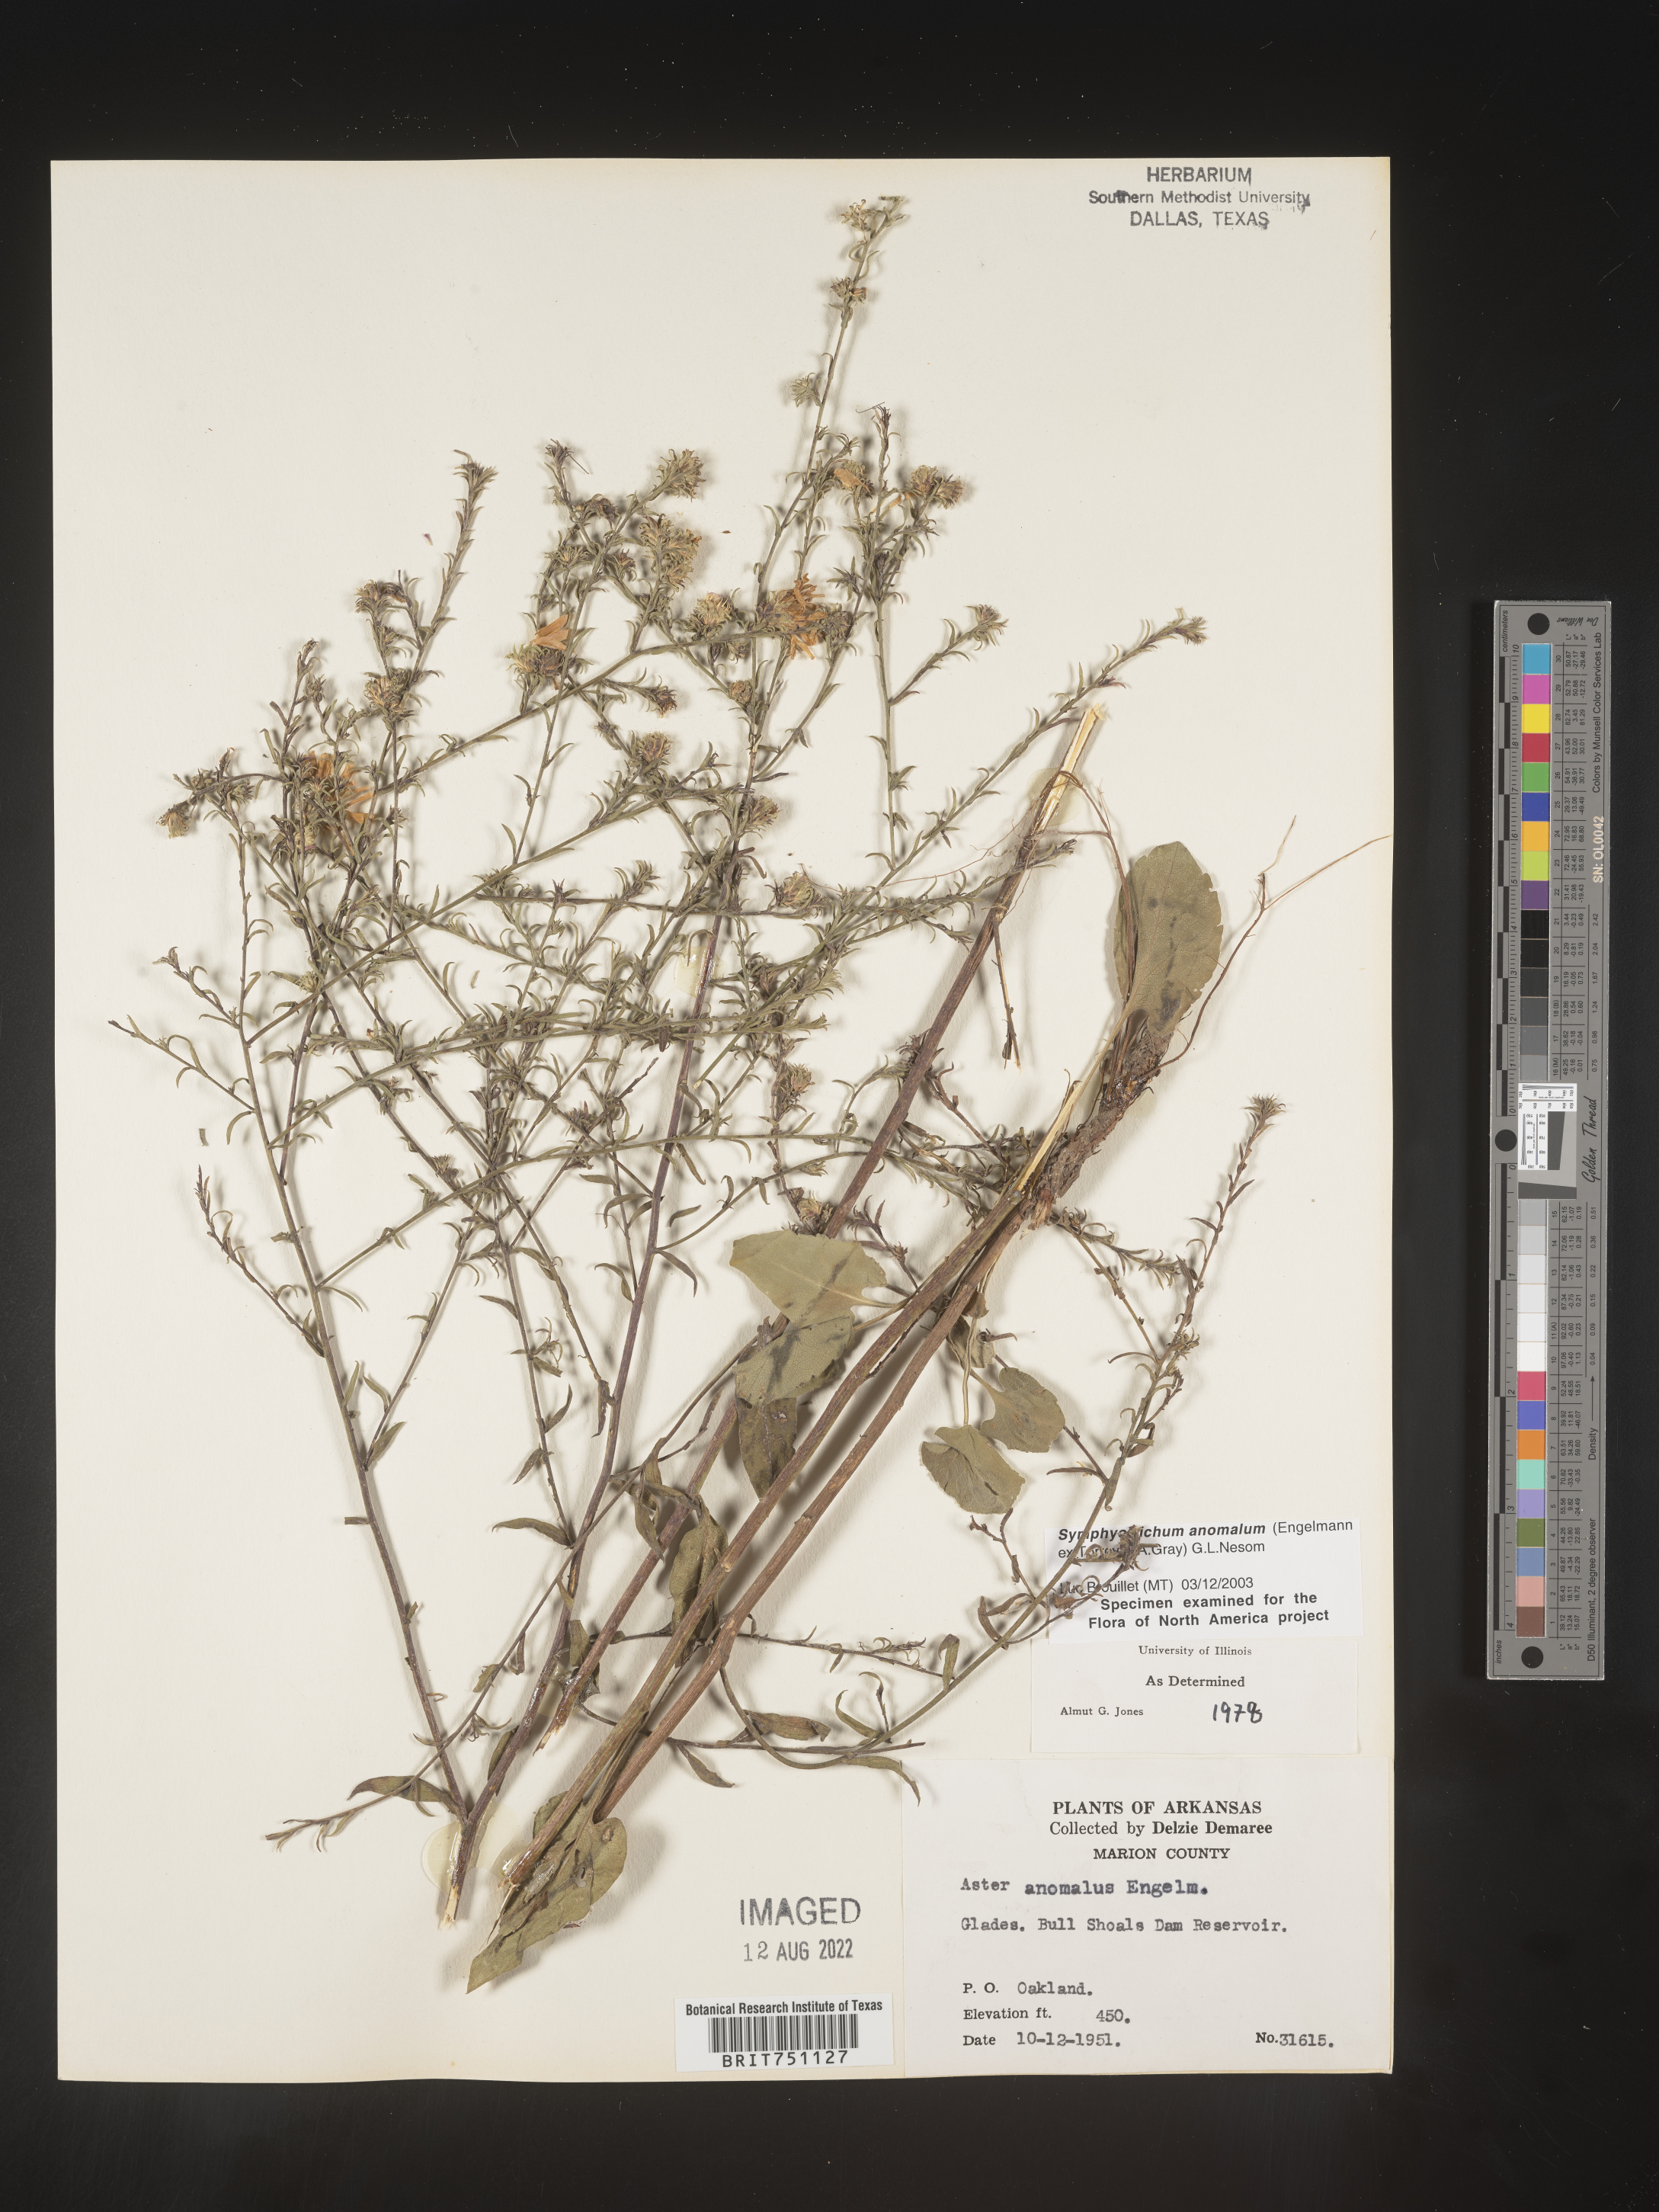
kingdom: Plantae
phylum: Tracheophyta
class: Magnoliopsida
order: Asterales
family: Asteraceae
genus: Symphyotrichum
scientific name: Symphyotrichum anomalum
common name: Many-ray aster
